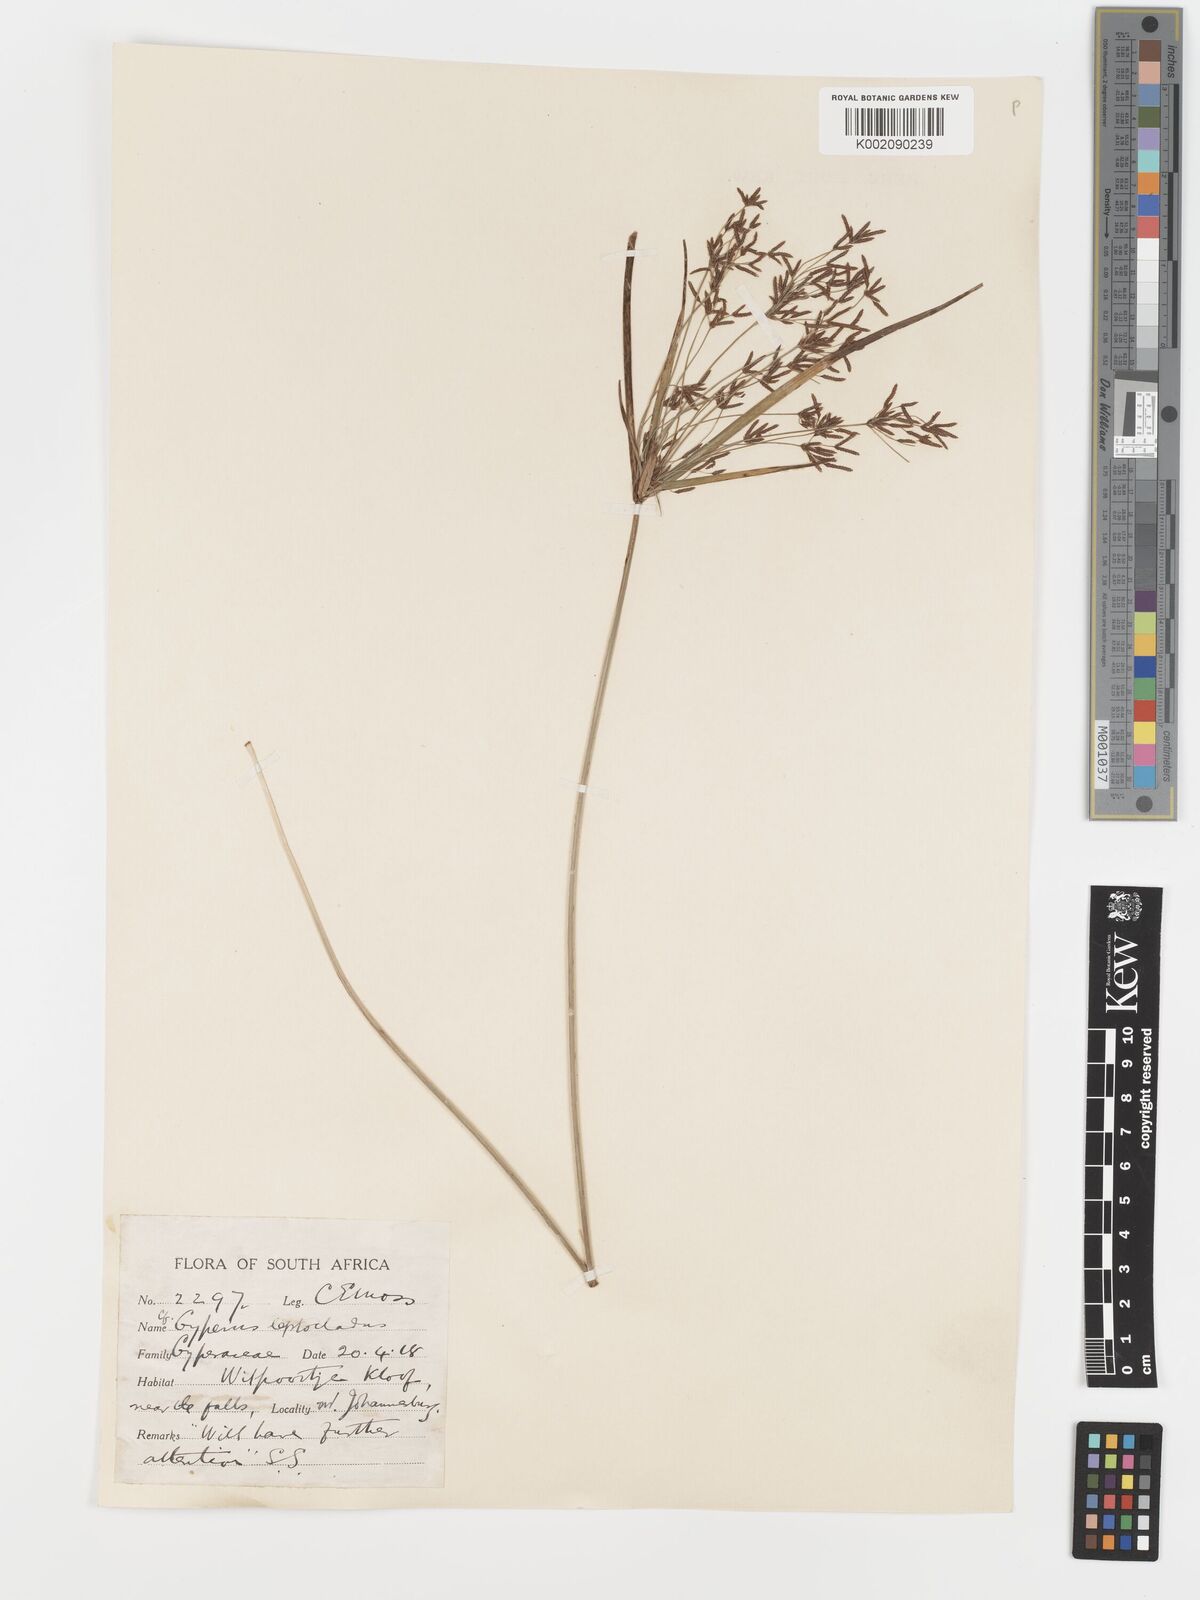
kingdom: Plantae
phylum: Tracheophyta
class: Liliopsida
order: Poales
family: Cyperaceae
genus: Cyperus
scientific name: Cyperus leptocladus
